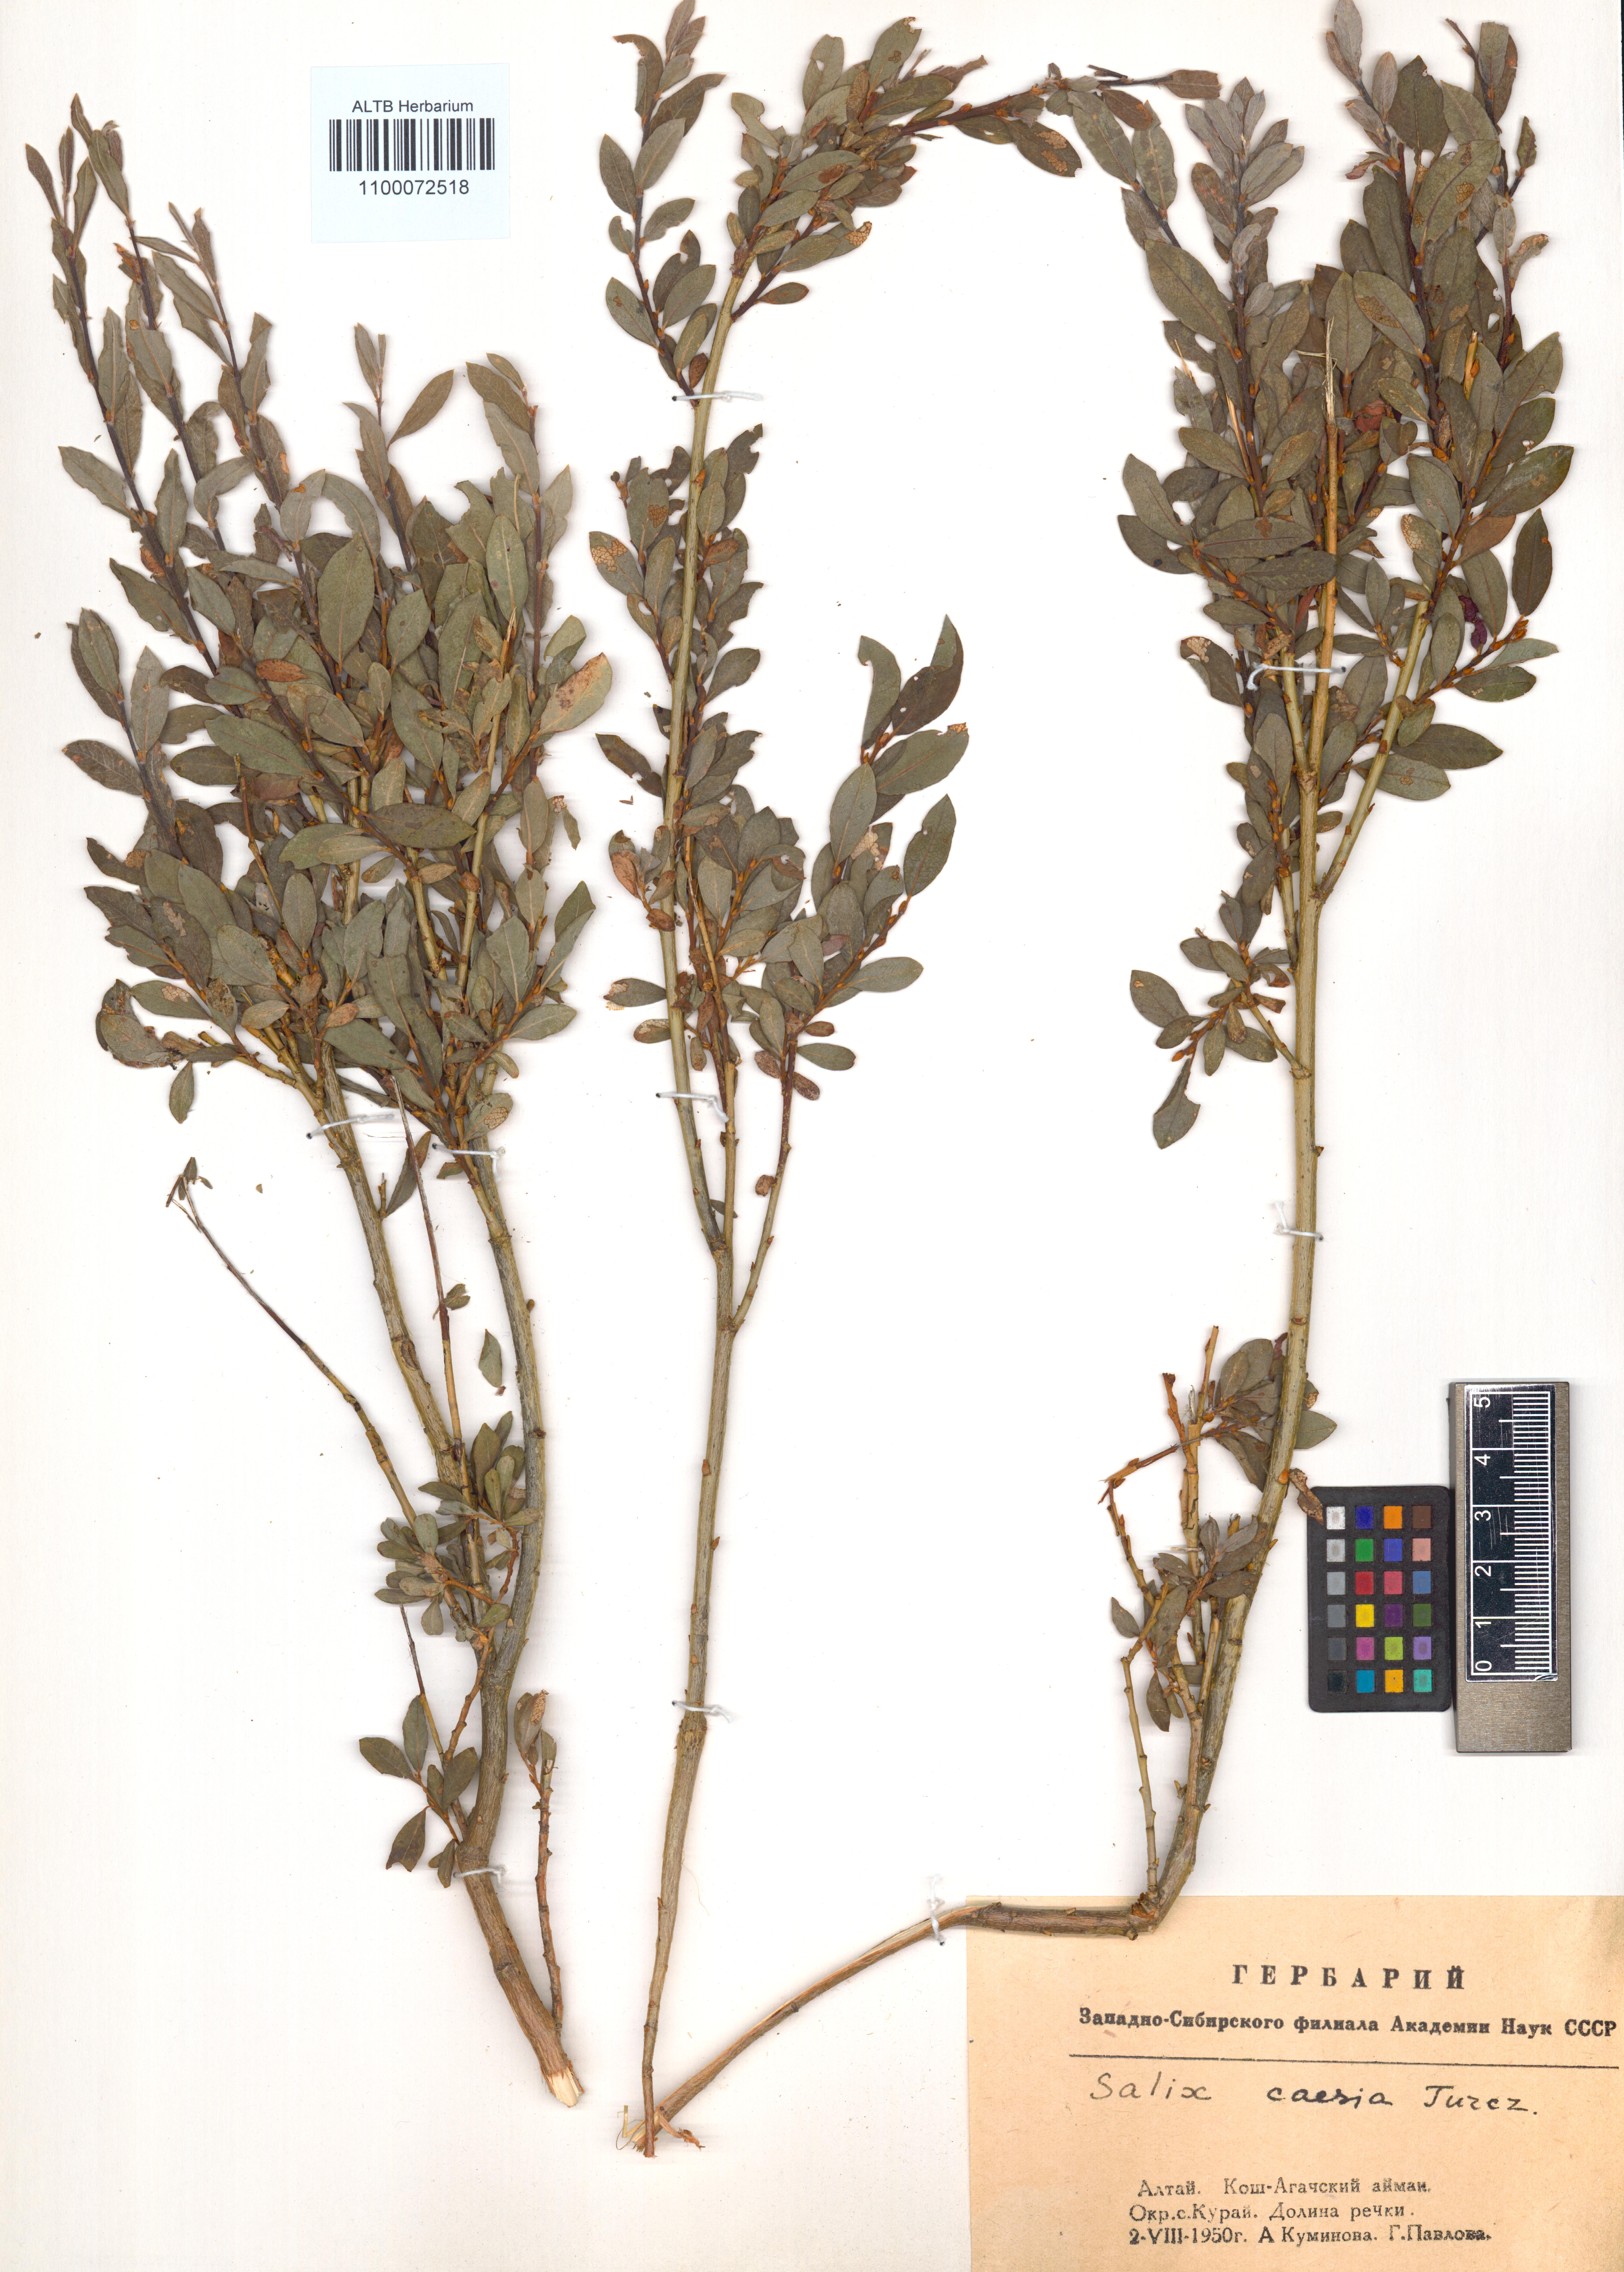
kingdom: Plantae
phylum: Tracheophyta
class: Magnoliopsida
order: Malpighiales
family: Salicaceae
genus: Salix
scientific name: Salix caesia
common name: Blue willow
